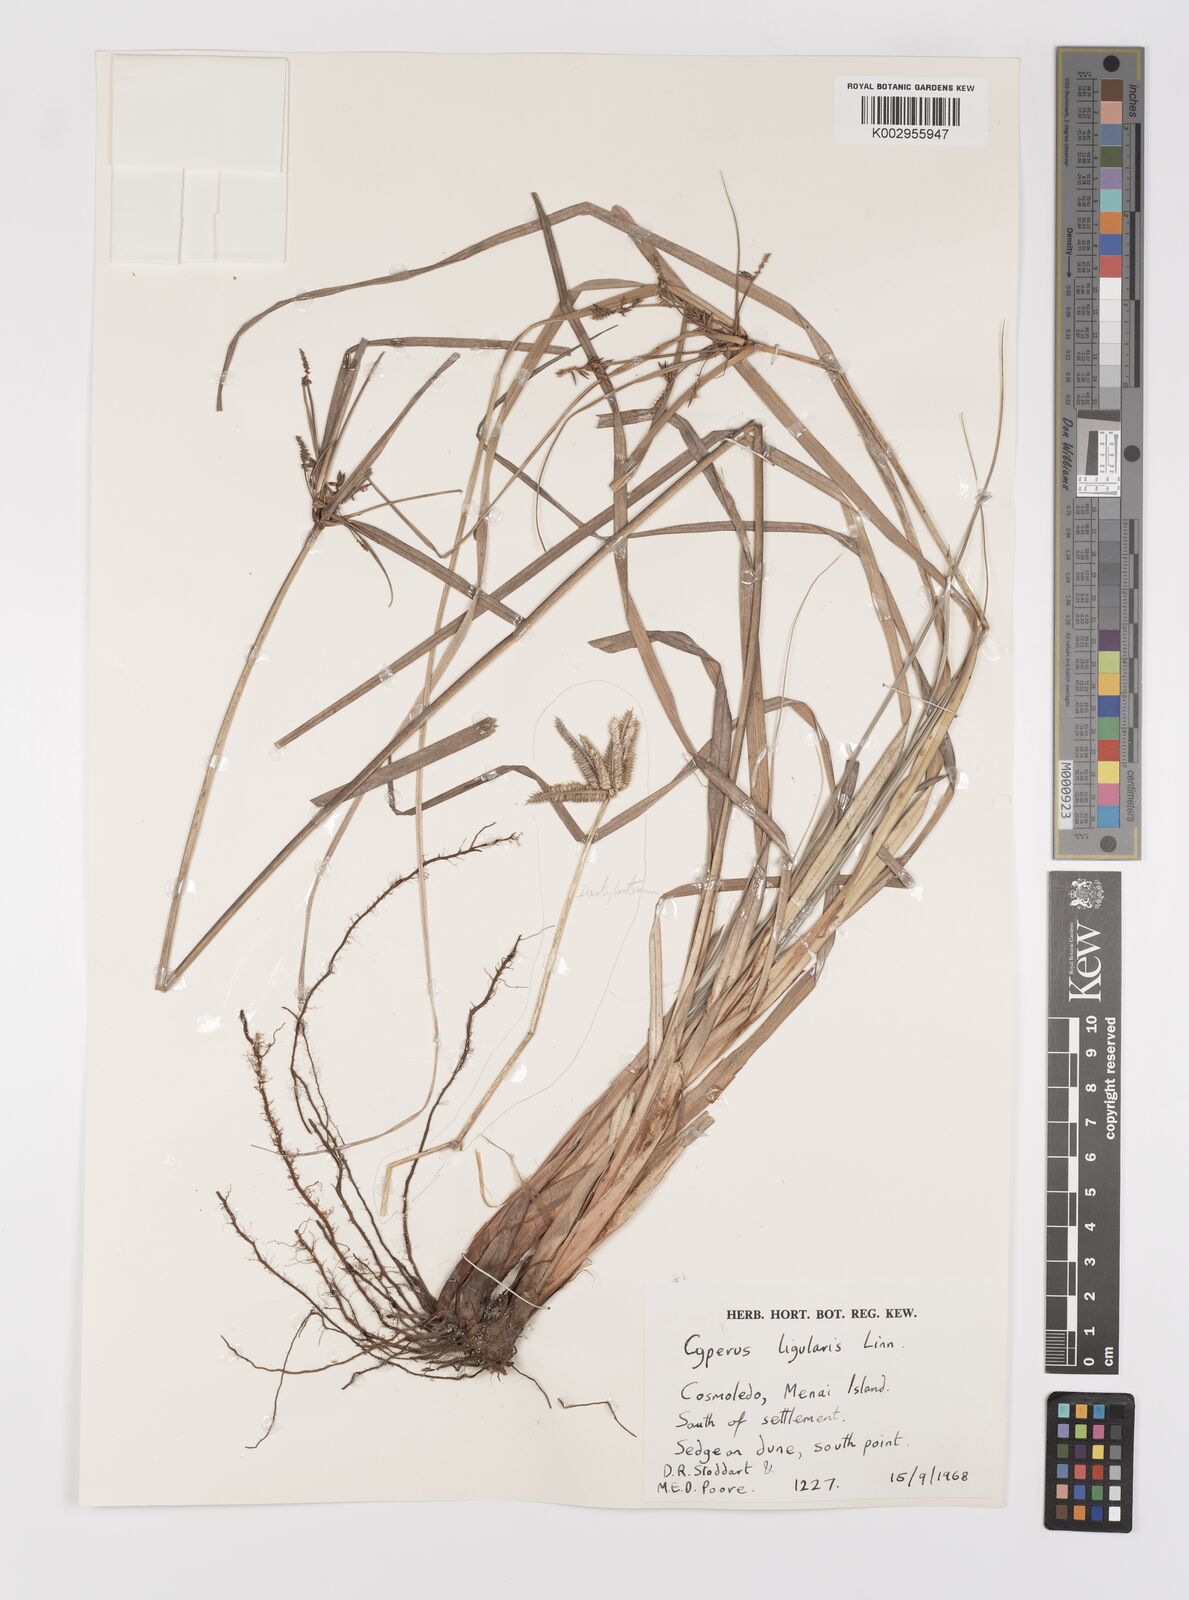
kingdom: Plantae
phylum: Tracheophyta
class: Liliopsida
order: Poales
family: Cyperaceae
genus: Cyperus
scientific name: Cyperus ligularis
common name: Swamp flat sedge
